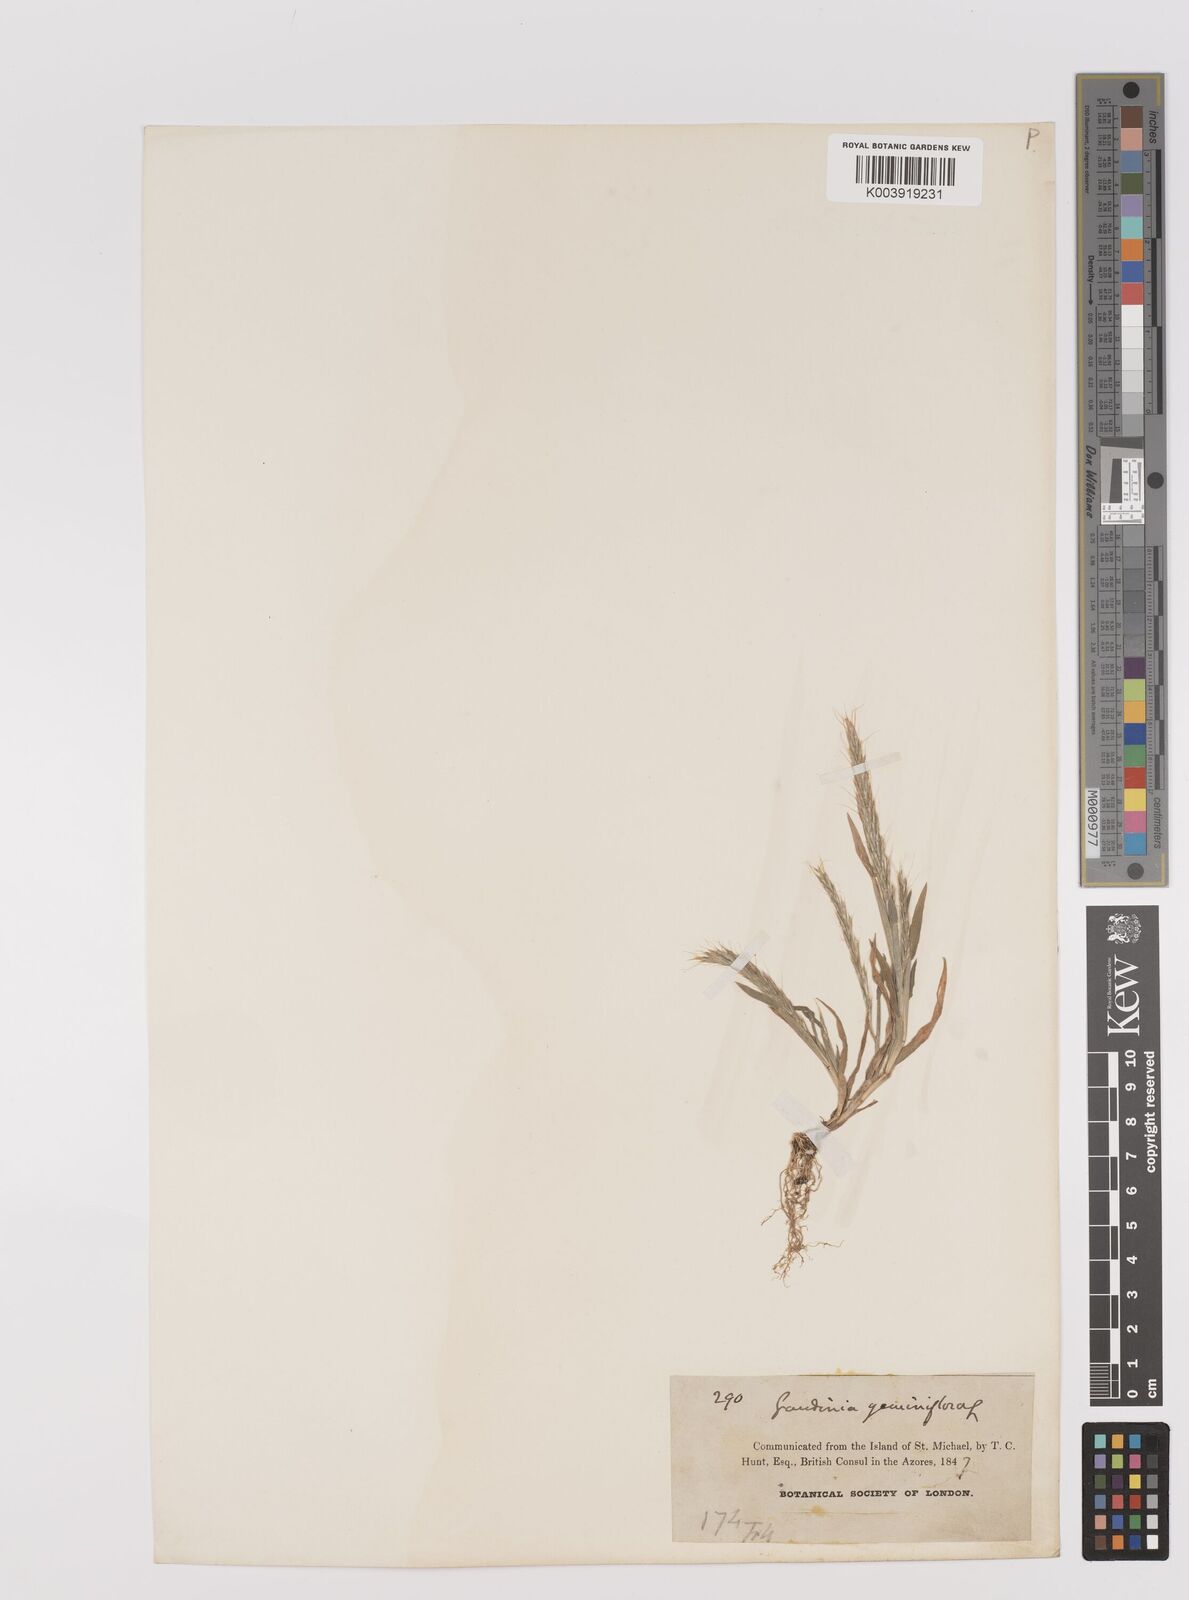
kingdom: Plantae
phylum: Tracheophyta
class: Liliopsida
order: Poales
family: Poaceae
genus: Gaudinia
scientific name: Gaudinia coarctata
